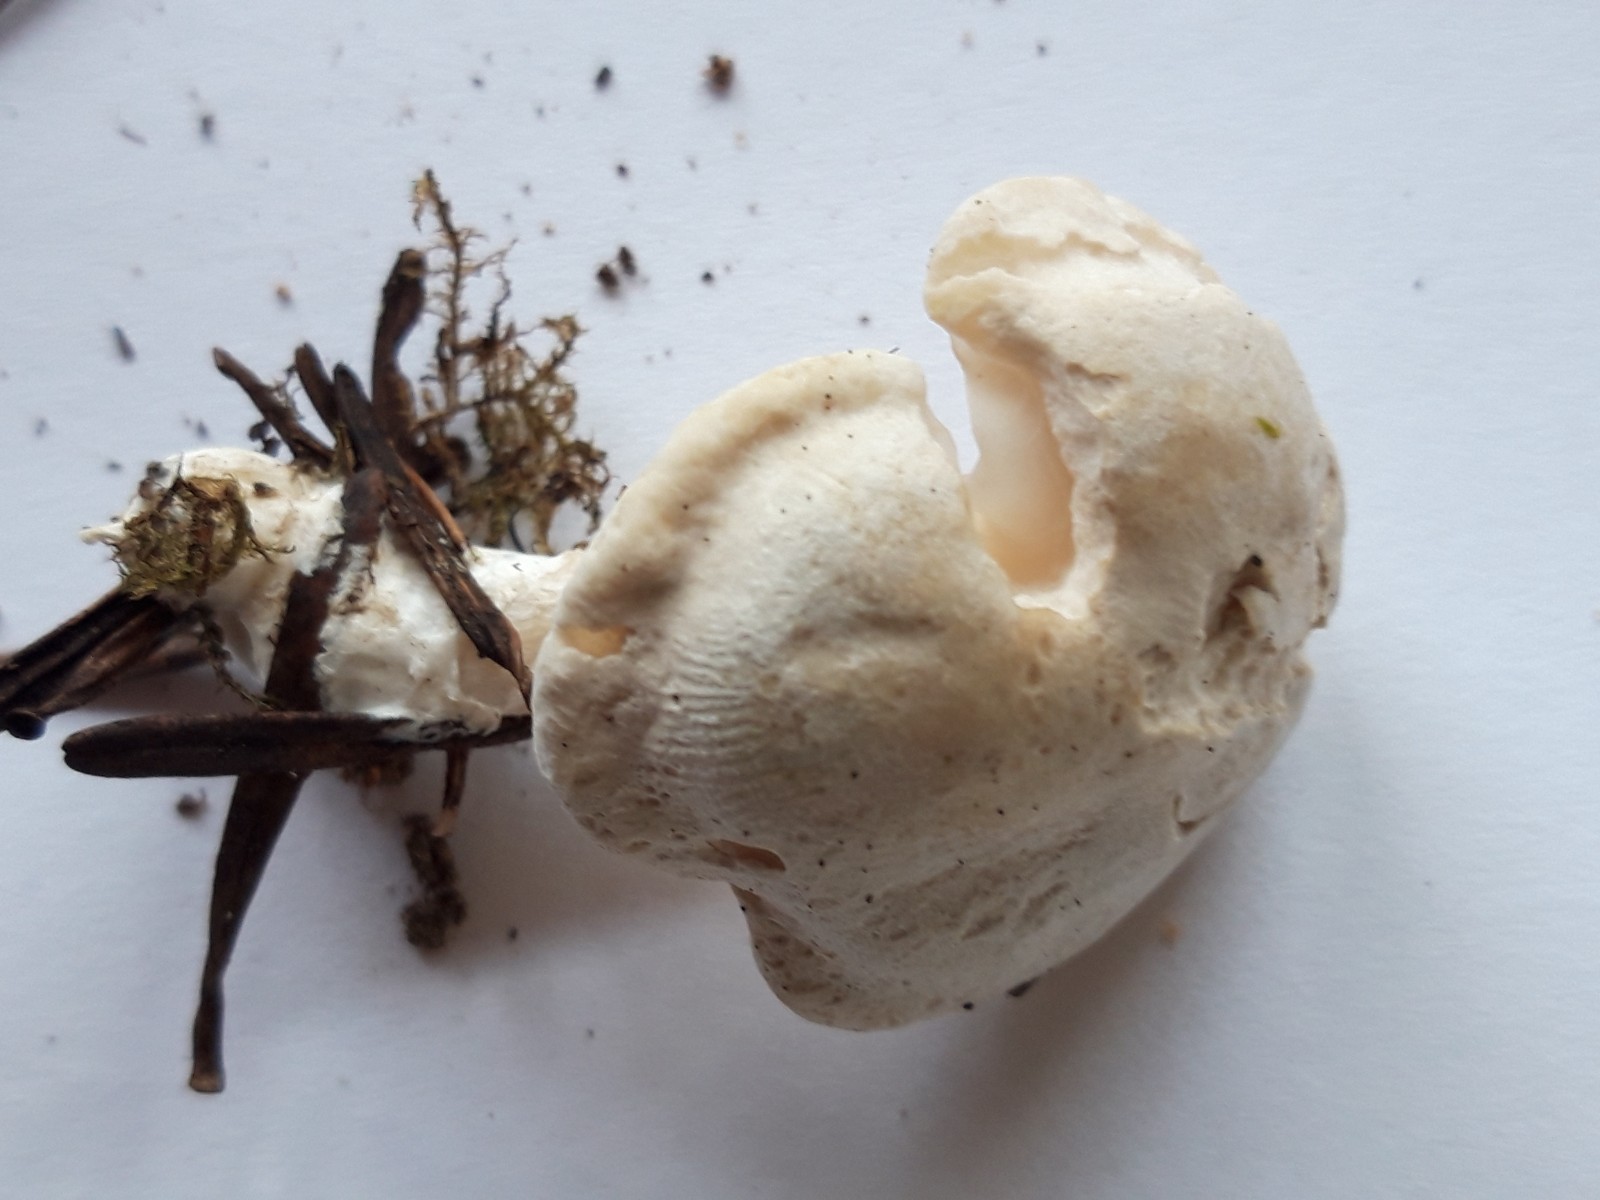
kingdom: Fungi
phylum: Basidiomycota
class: Agaricomycetes
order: Agaricales
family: Entolomataceae
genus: Clitopilus
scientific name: Clitopilus prunulus
